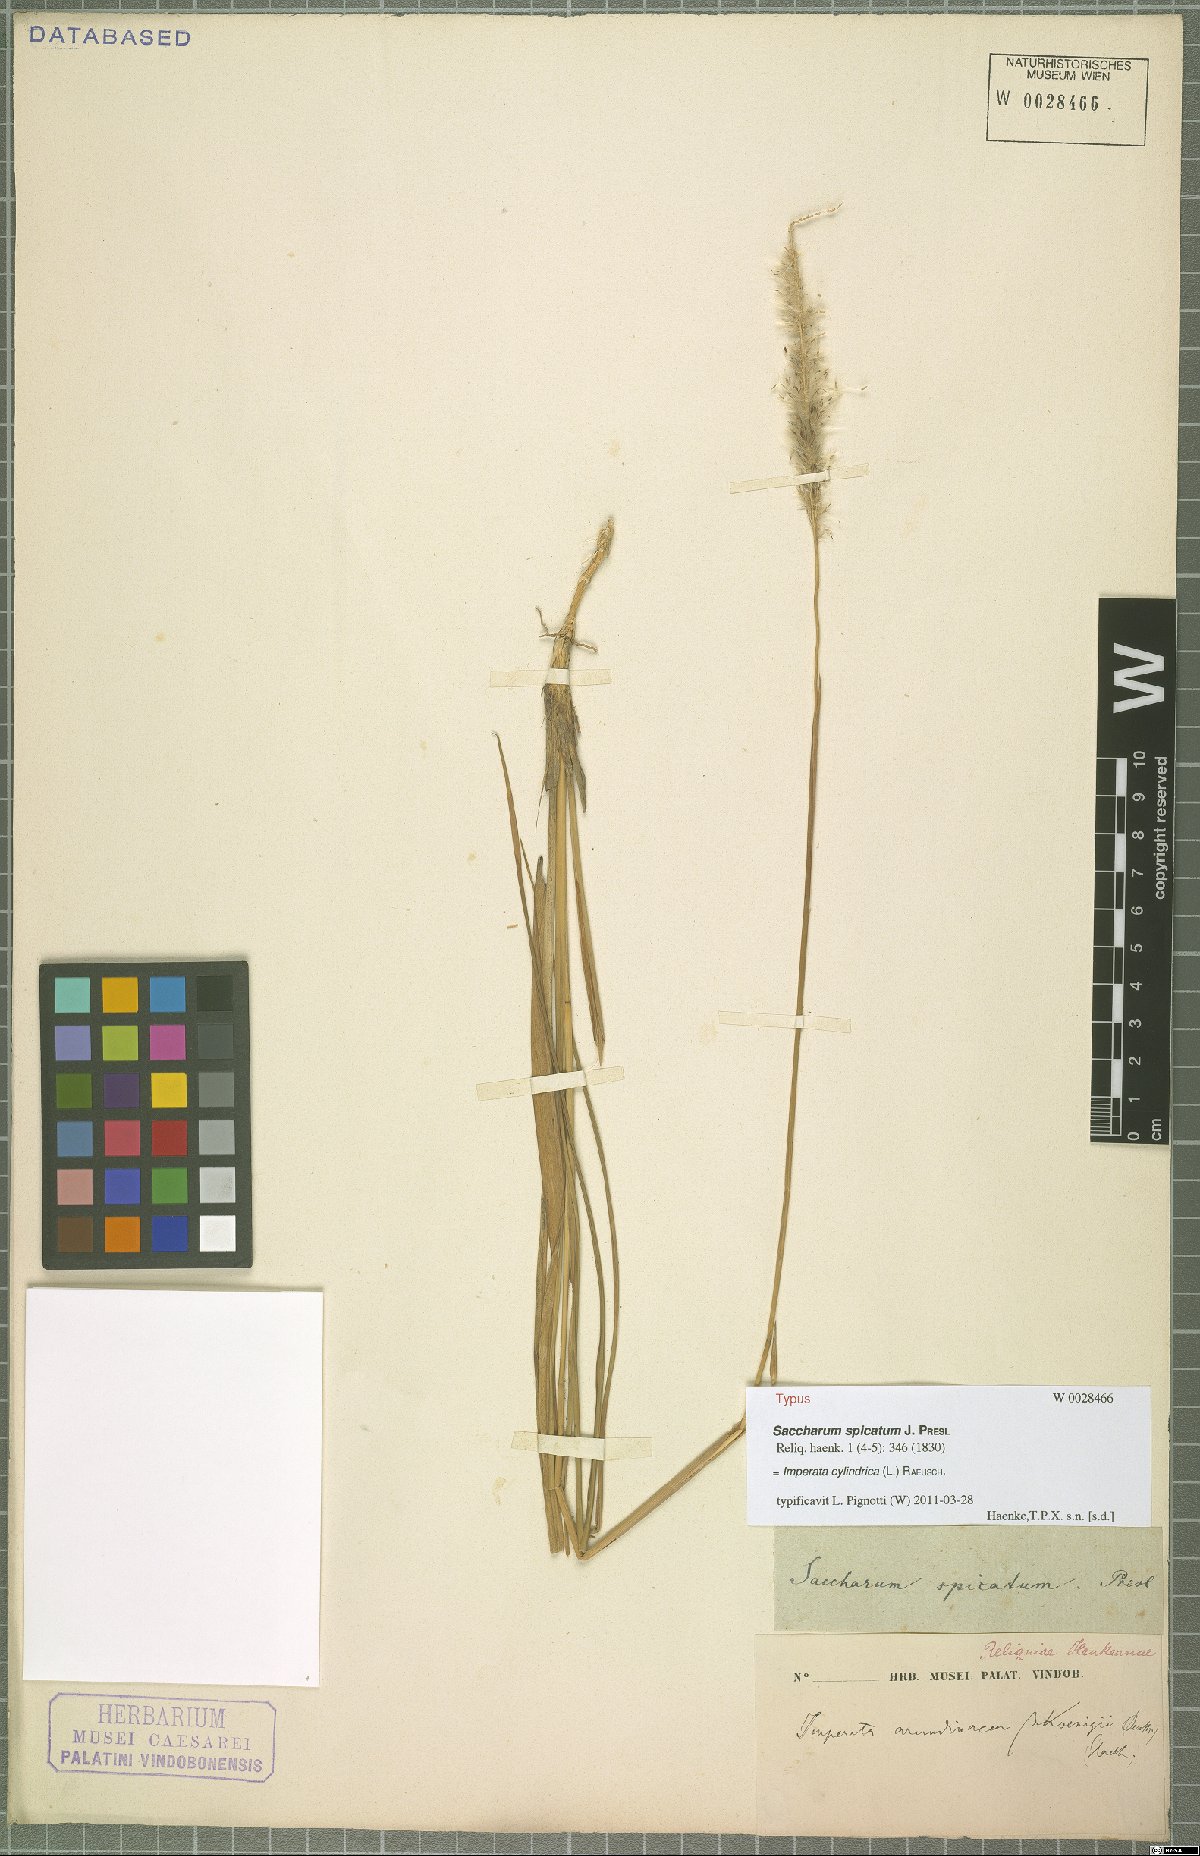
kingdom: Plantae
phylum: Tracheophyta
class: Liliopsida
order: Poales
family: Poaceae
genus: Imperata
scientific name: Imperata cylindrica
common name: Cogongrass
